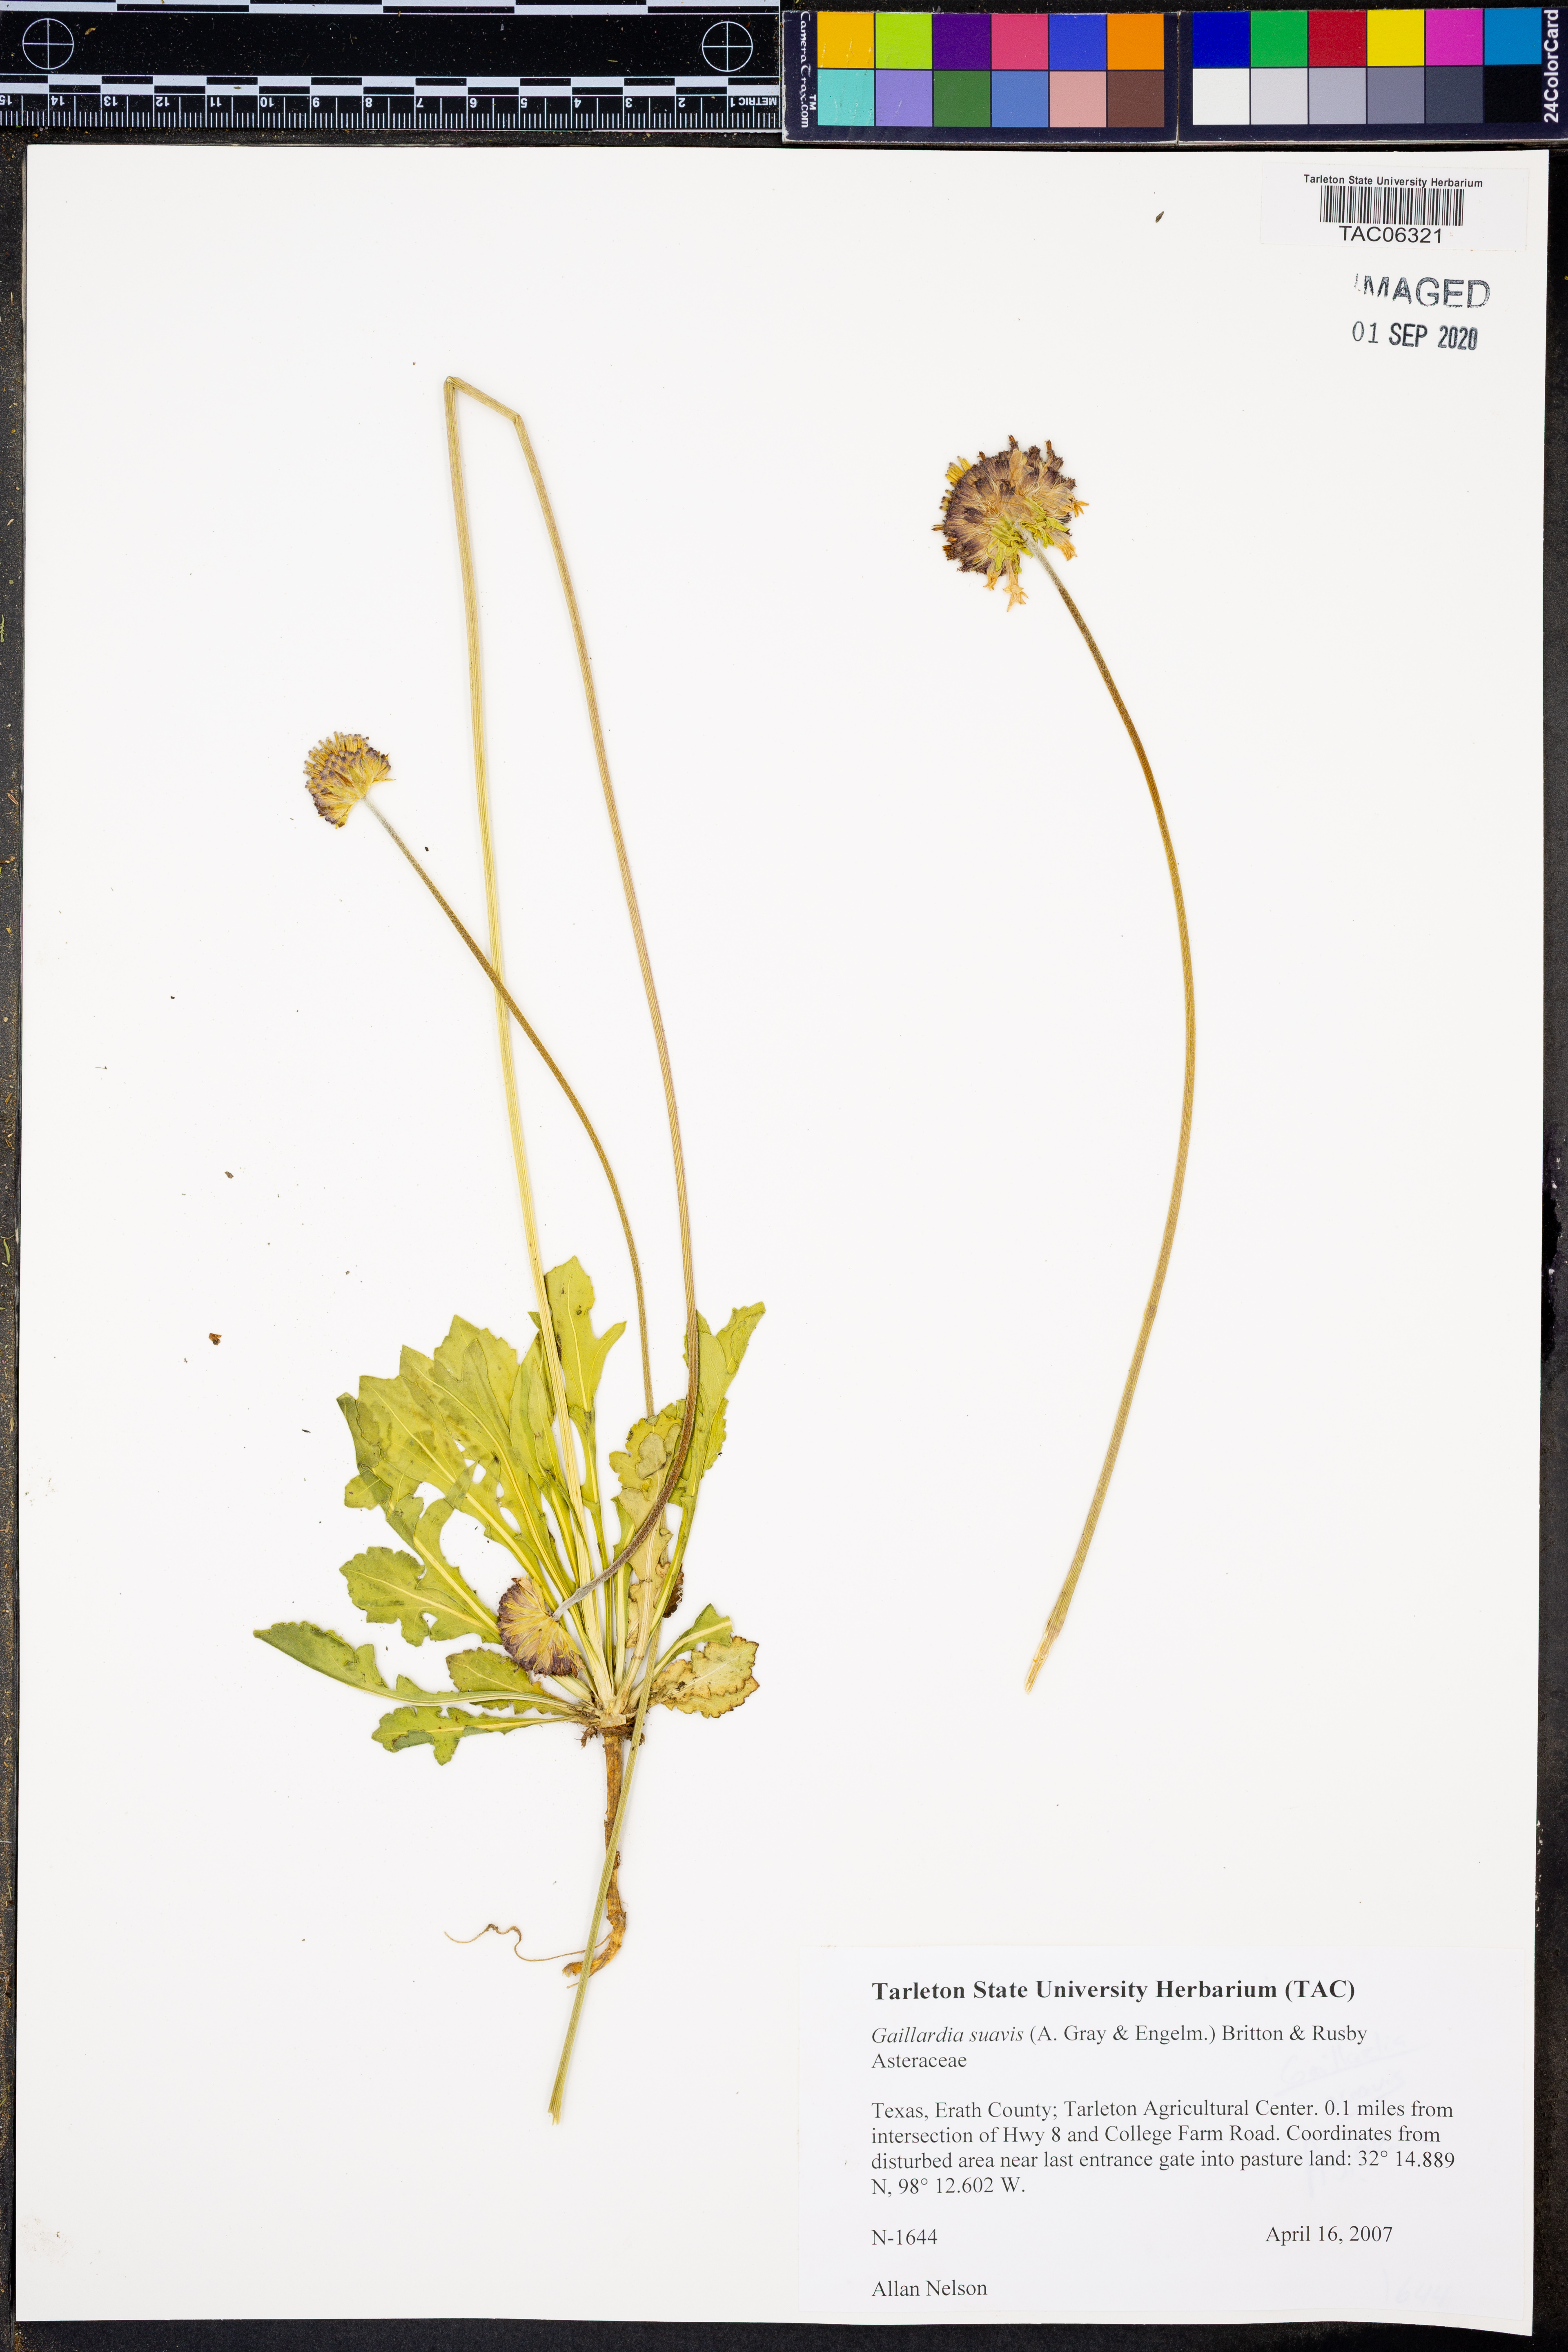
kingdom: Plantae
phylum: Tracheophyta
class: Magnoliopsida
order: Asterales
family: Asteraceae
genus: Gaillardia
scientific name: Gaillardia suavis
